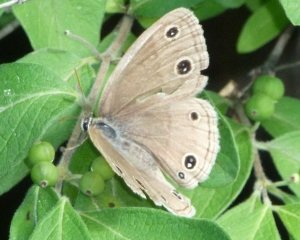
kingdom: Animalia
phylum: Arthropoda
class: Insecta
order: Lepidoptera
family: Nymphalidae
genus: Euptychia
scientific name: Euptychia cymela
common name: Little Wood Satyr
